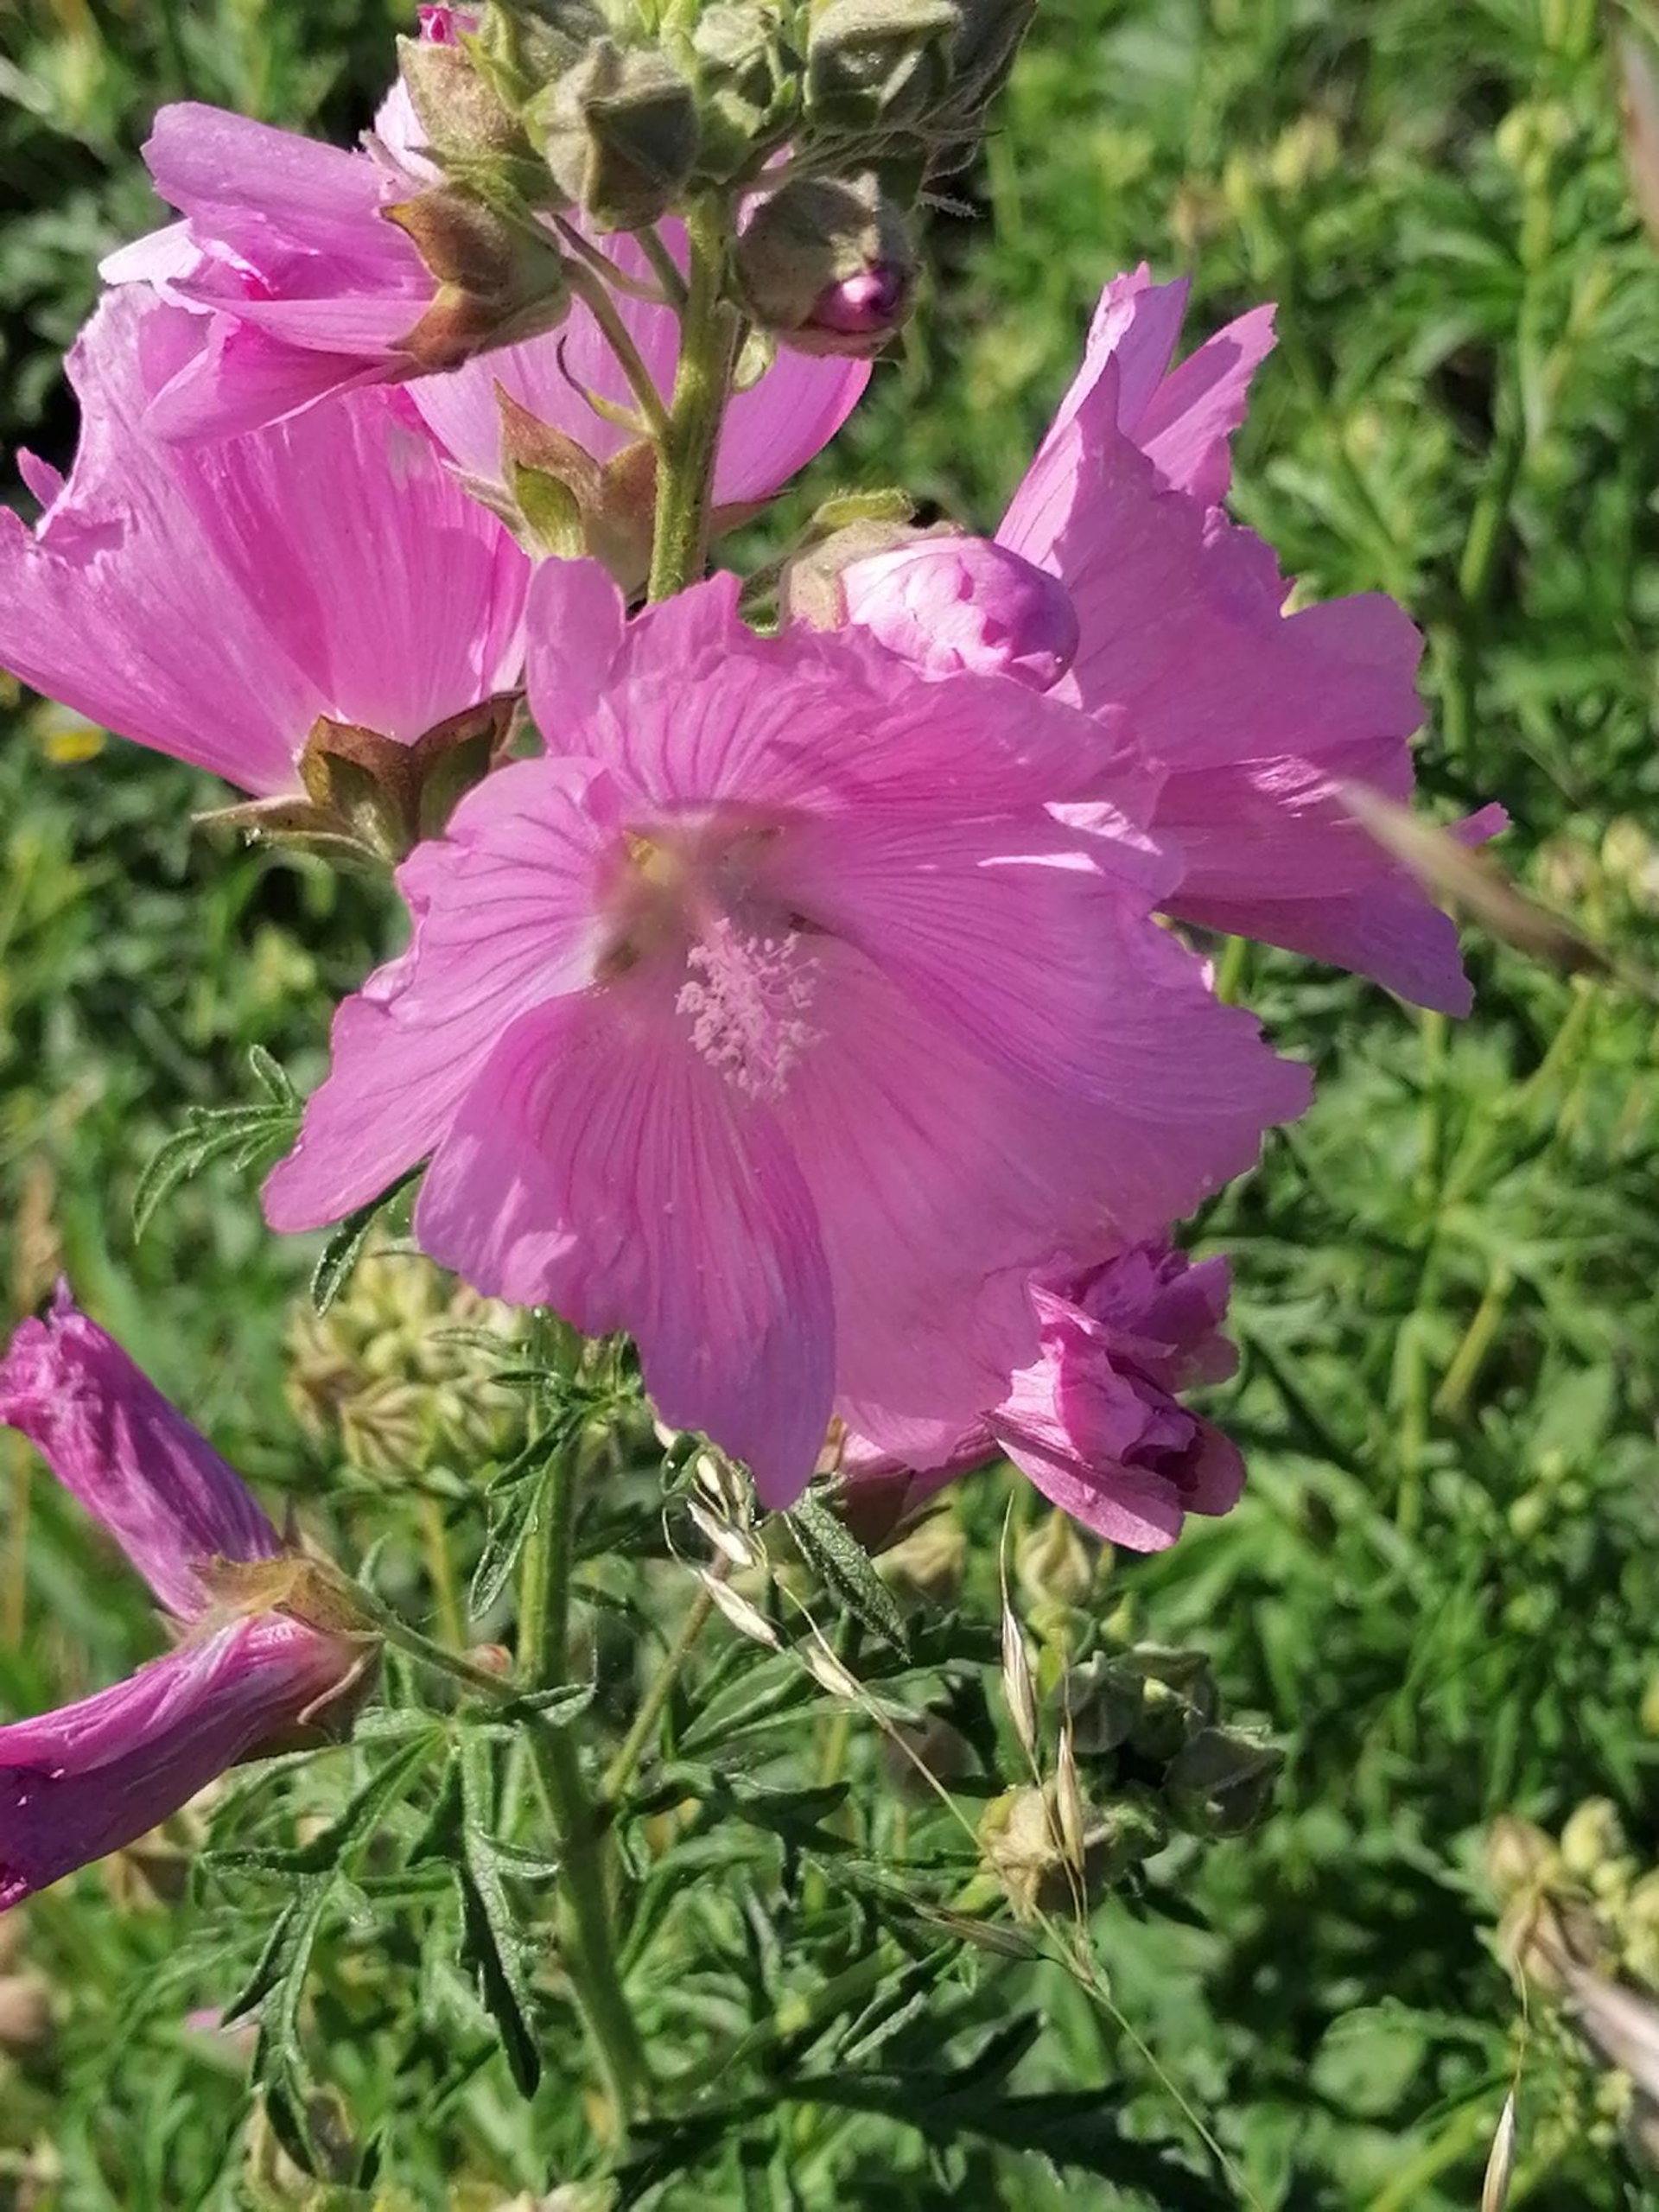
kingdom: Plantae
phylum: Tracheophyta
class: Magnoliopsida
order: Malvales
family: Malvaceae
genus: Malva
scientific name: Malva alcea
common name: Rosen-katost
